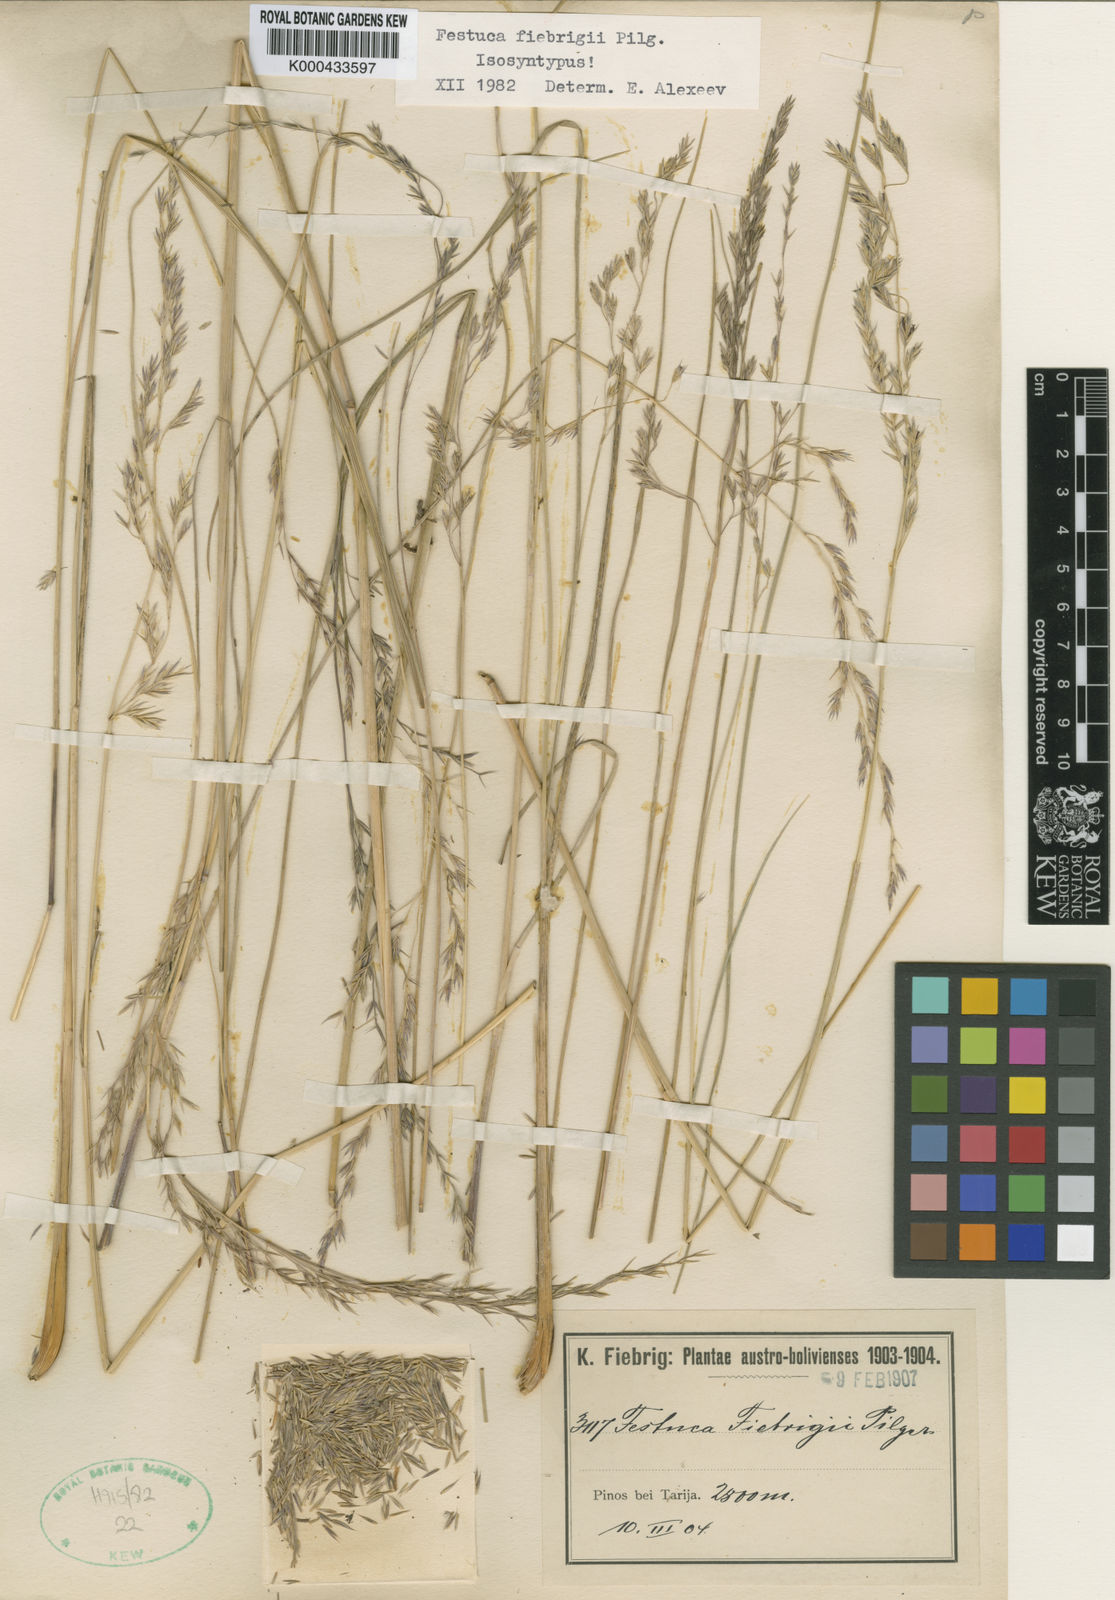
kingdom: Plantae
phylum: Tracheophyta
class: Liliopsida
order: Poales
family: Poaceae
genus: Festuca
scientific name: Festuca fiebrigii
